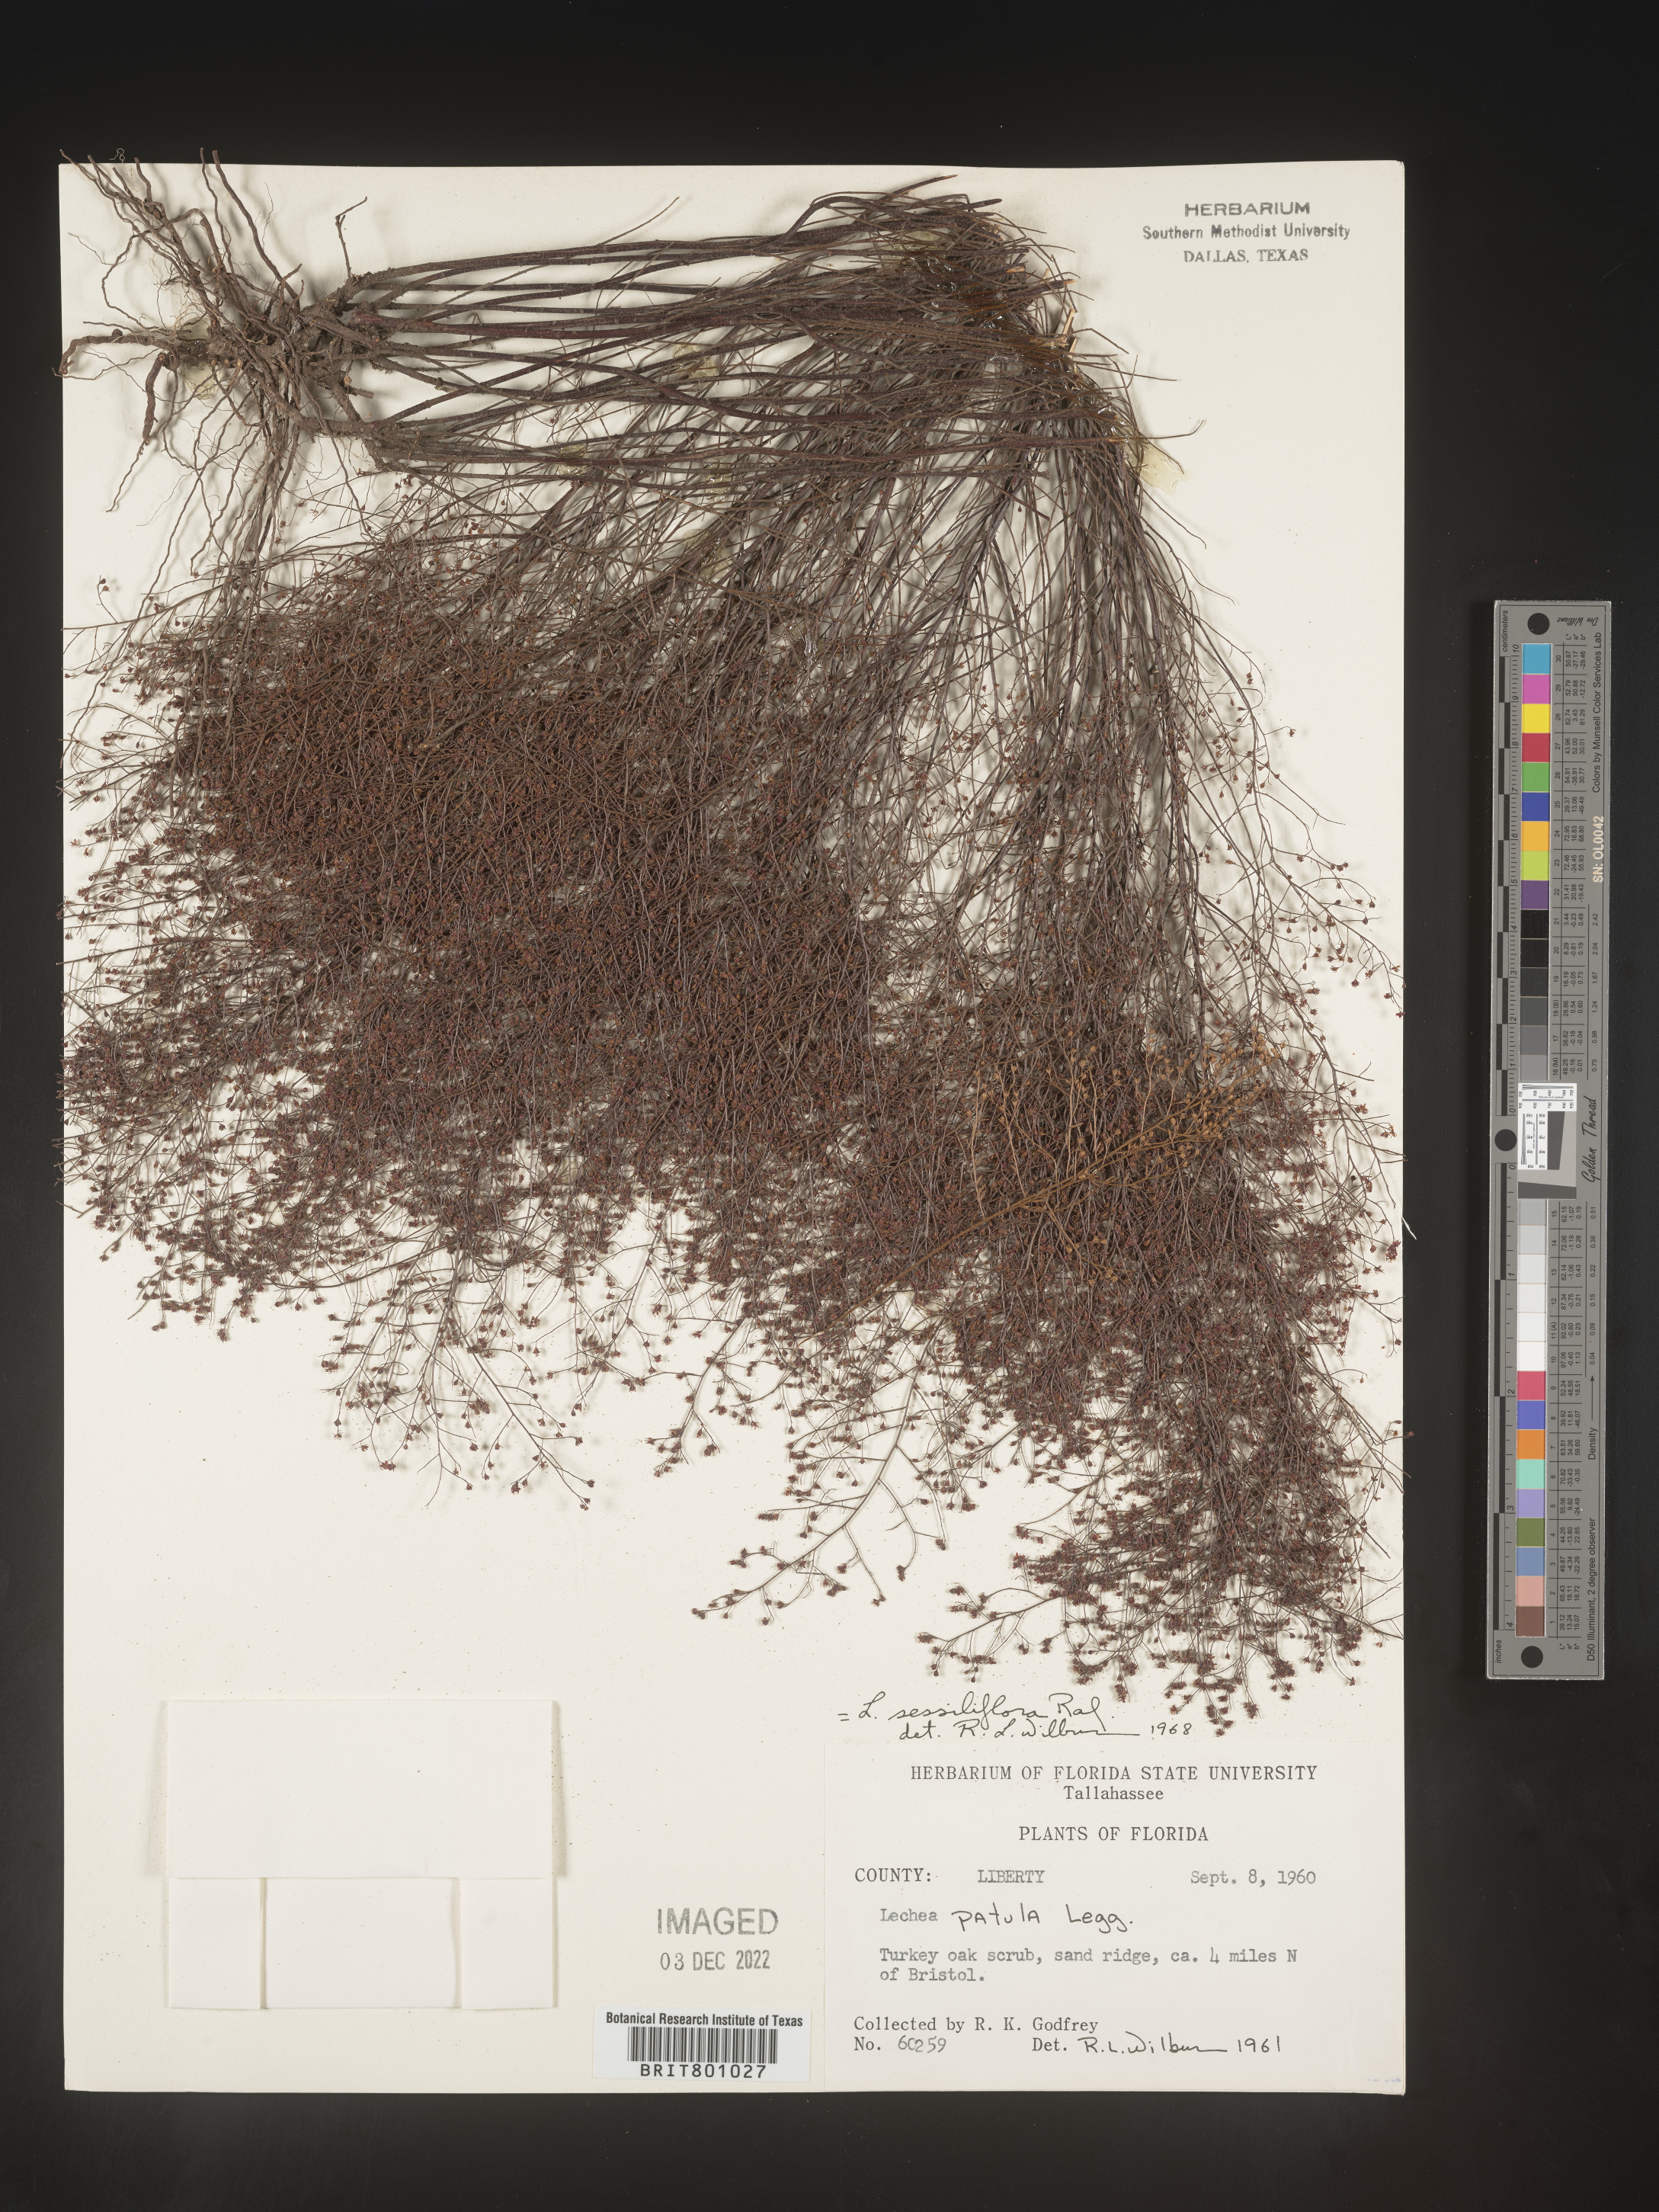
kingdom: Plantae
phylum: Tracheophyta
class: Magnoliopsida
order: Malvales
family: Cistaceae
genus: Lechea
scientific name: Lechea
